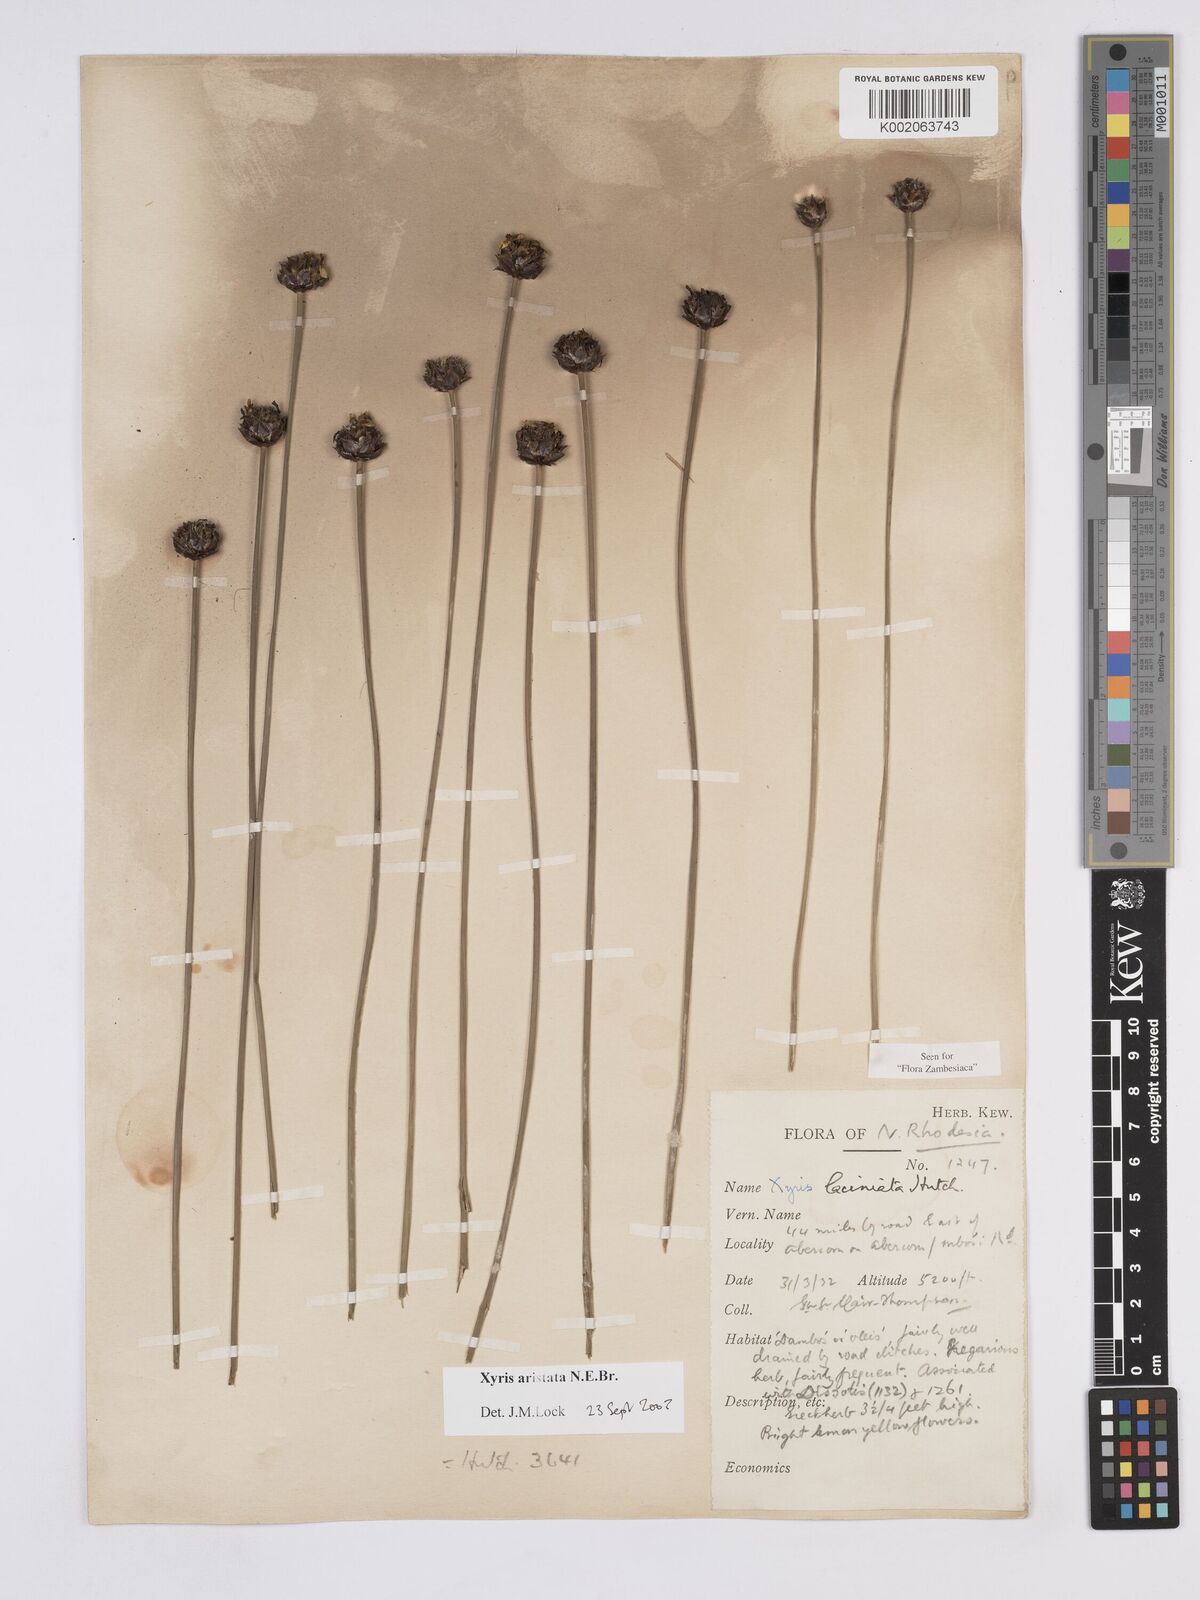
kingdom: Plantae
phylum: Tracheophyta
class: Liliopsida
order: Poales
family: Xyridaceae
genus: Xyris
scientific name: Xyris aristata
